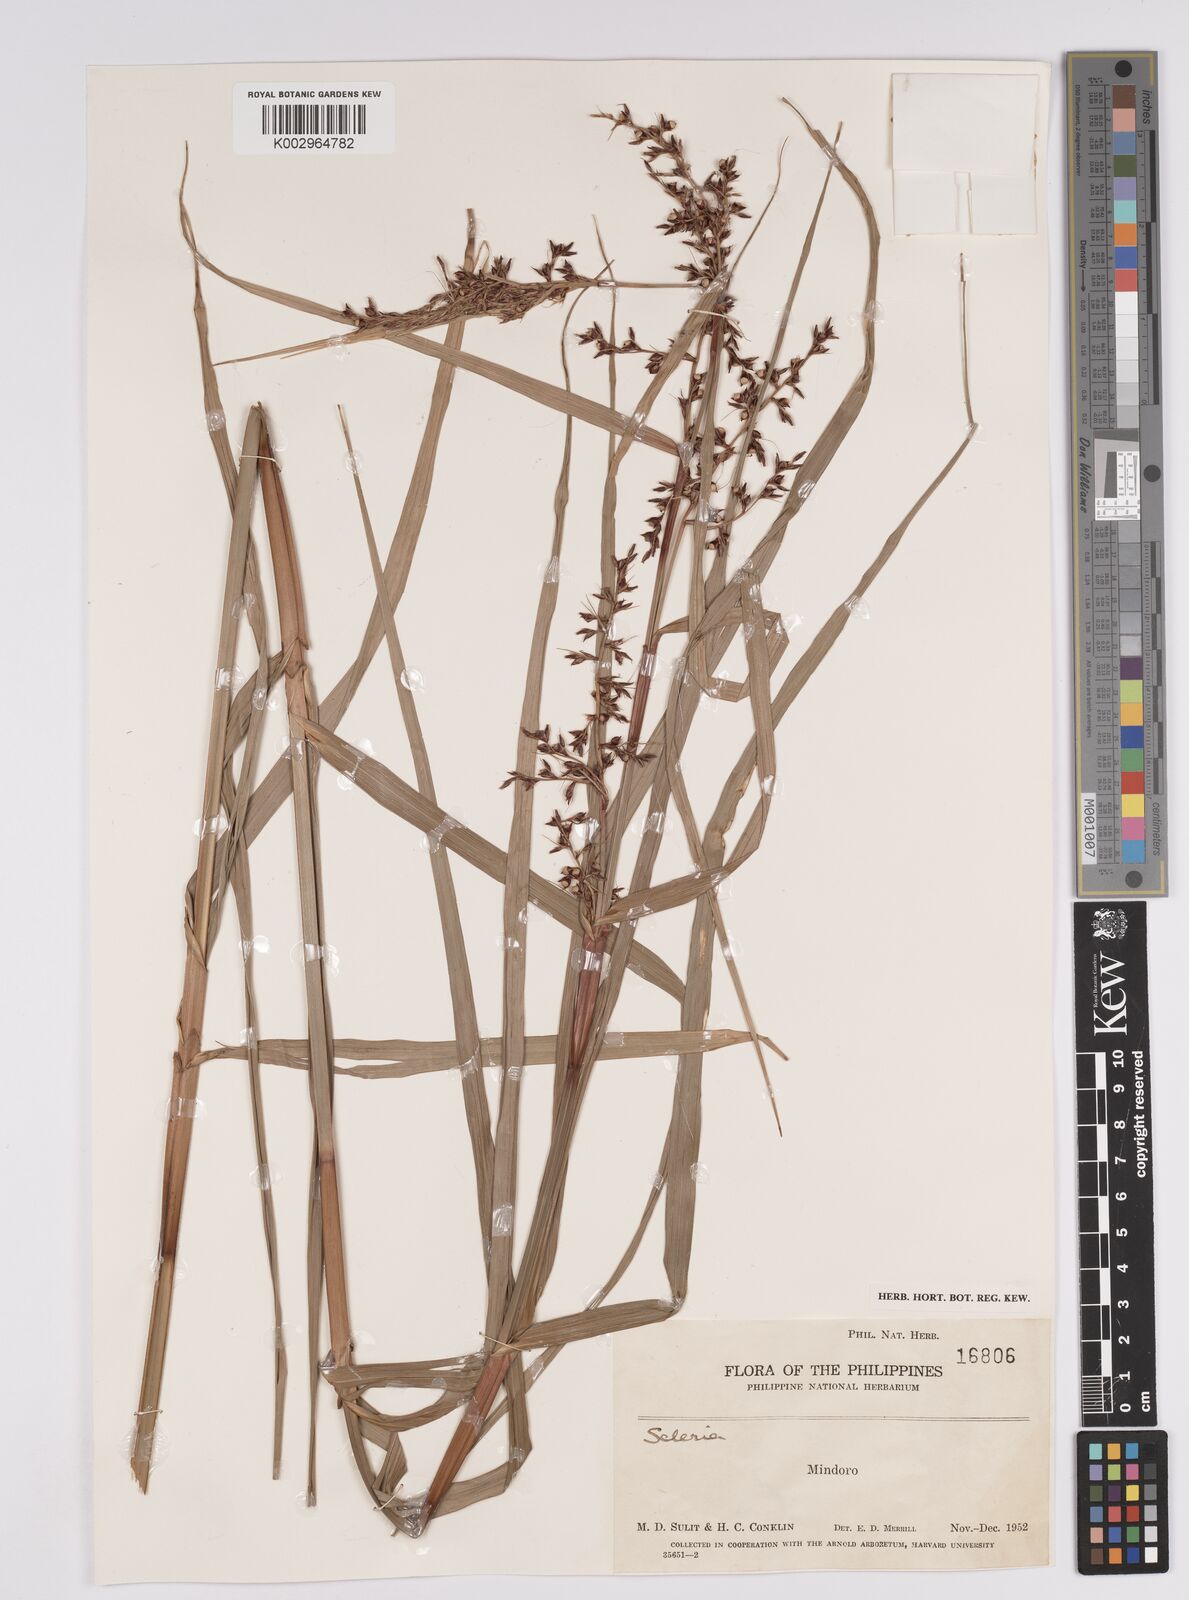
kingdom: Plantae
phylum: Tracheophyta
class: Liliopsida
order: Poales
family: Cyperaceae
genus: Scleria
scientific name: Scleria scrobiculata
